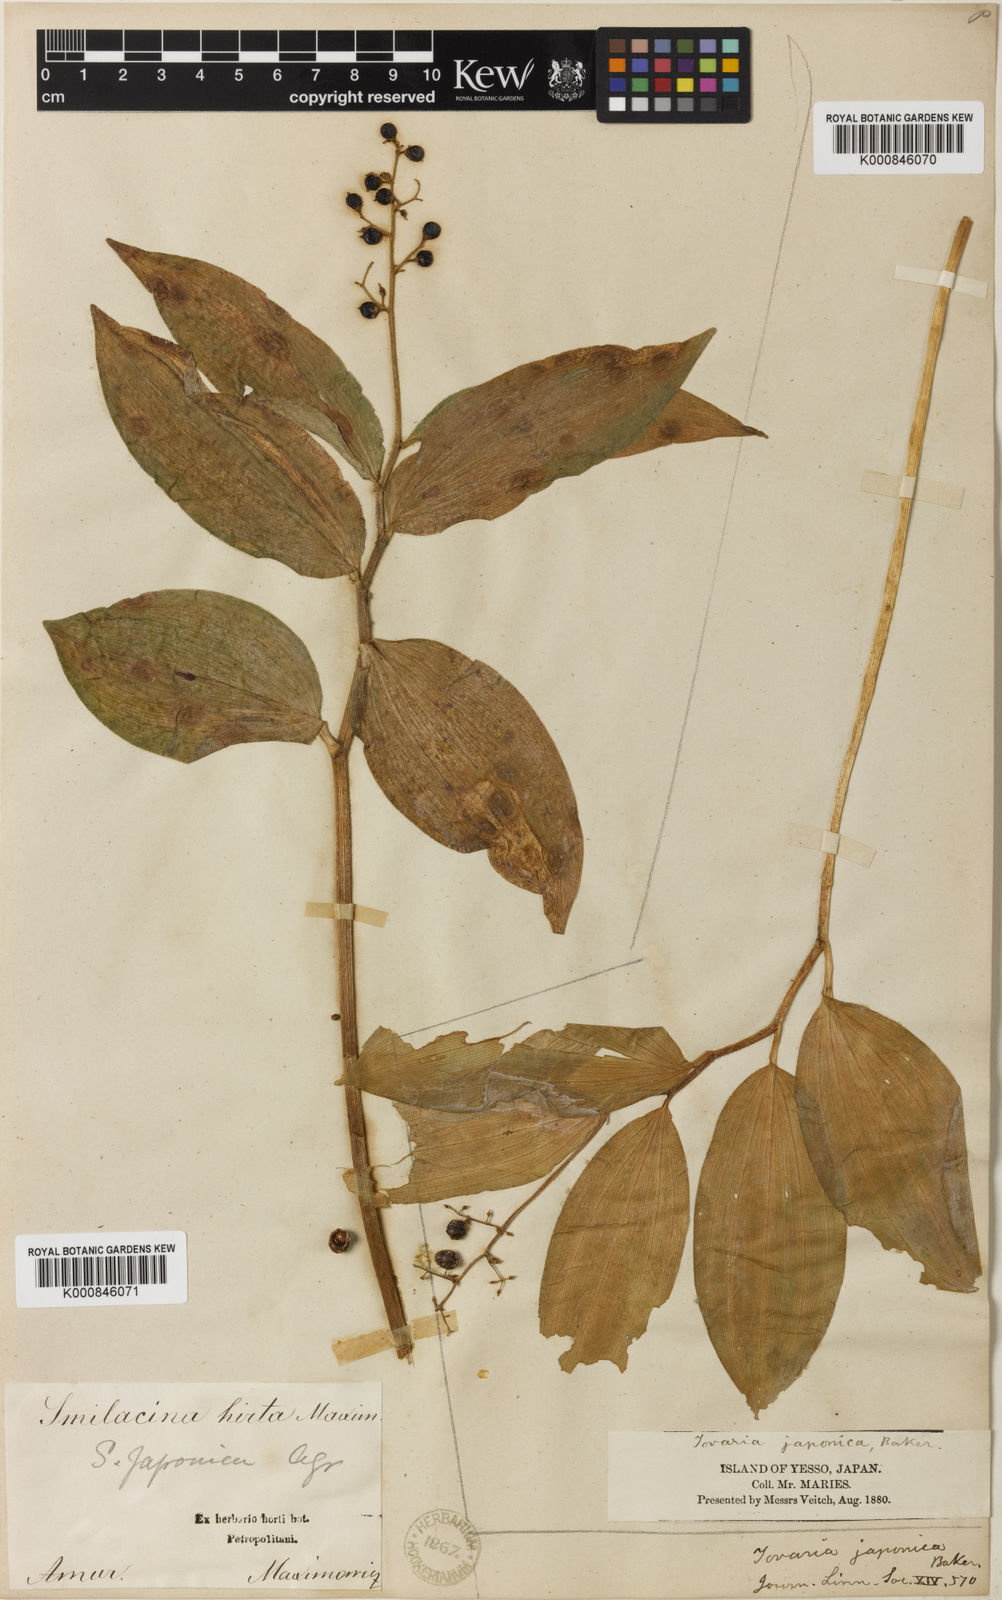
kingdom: Plantae
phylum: Tracheophyta
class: Liliopsida
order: Asparagales
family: Asparagaceae
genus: Maianthemum
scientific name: Maianthemum japonicum
